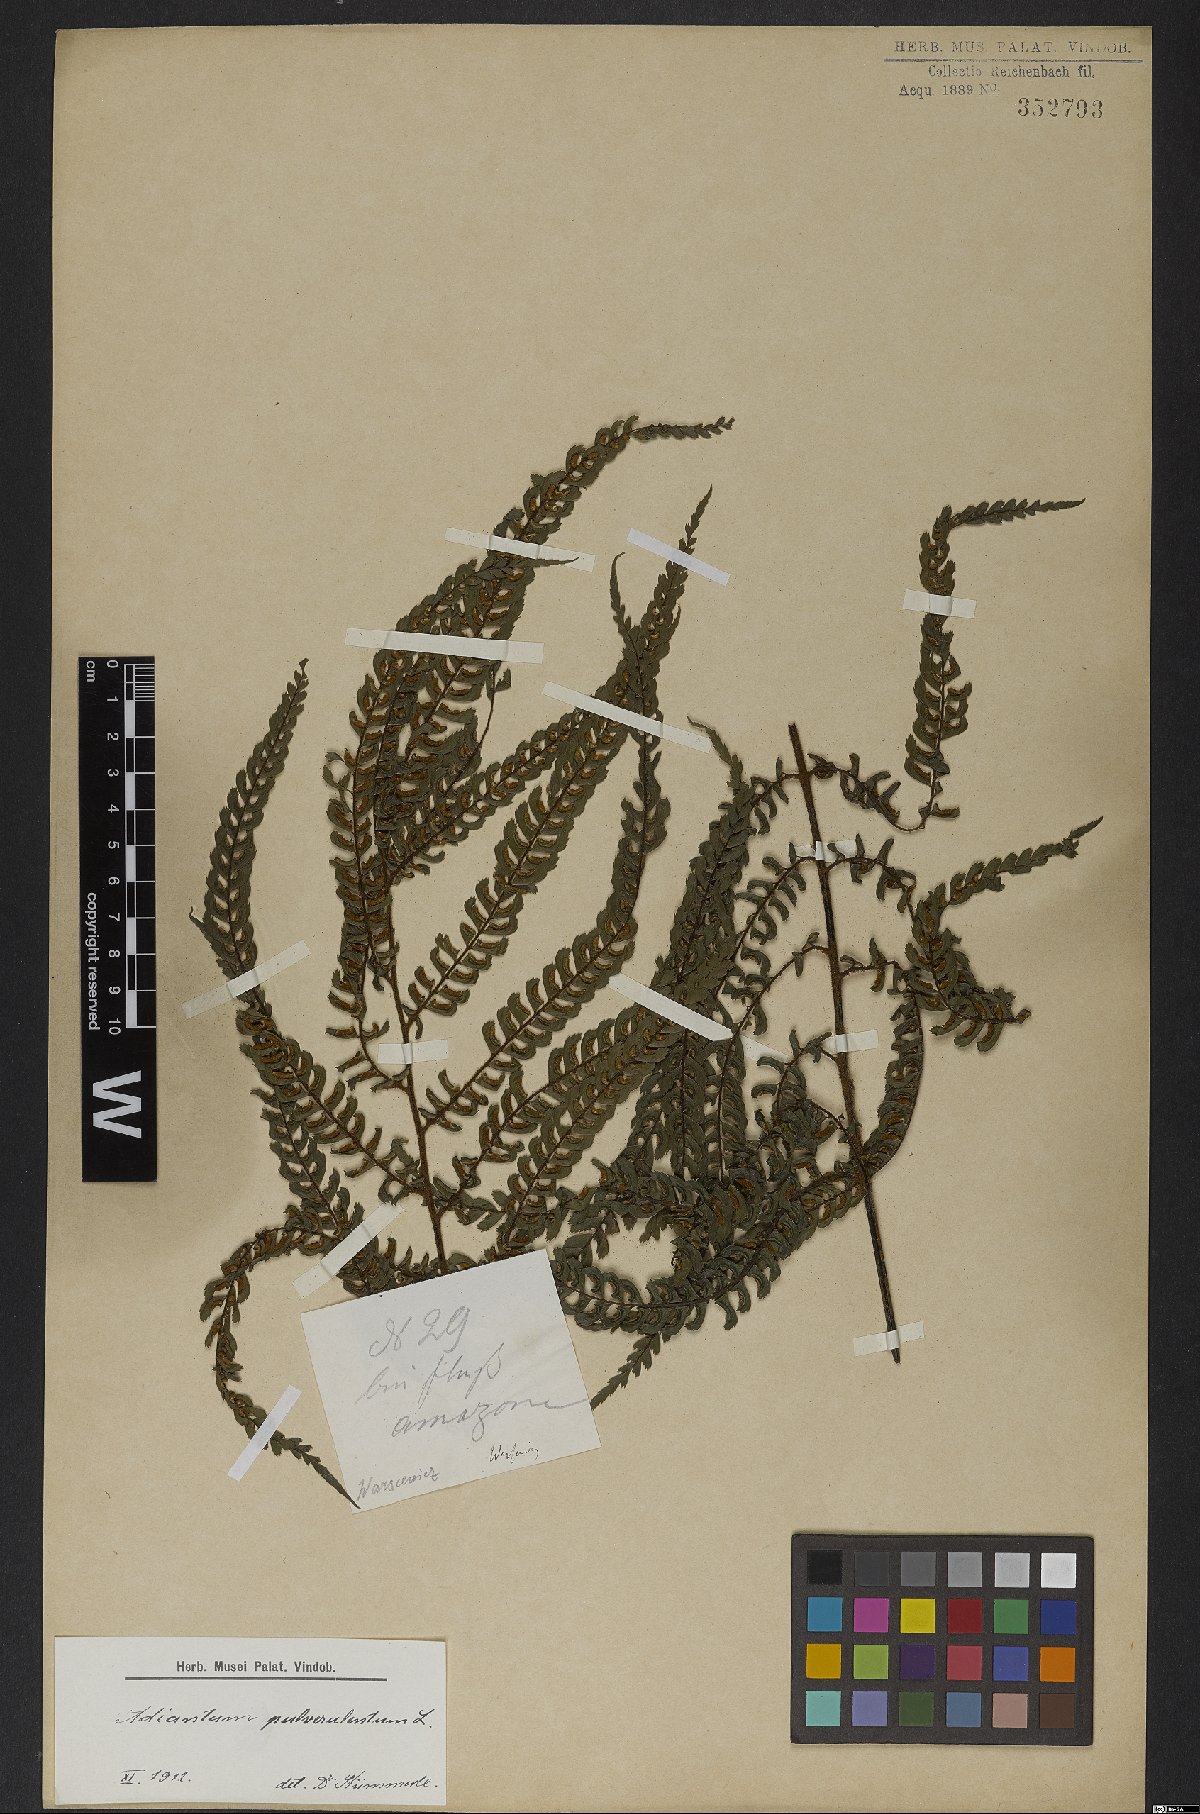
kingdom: Plantae
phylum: Tracheophyta
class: Polypodiopsida
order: Polypodiales
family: Pteridaceae
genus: Adiantum
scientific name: Adiantum pulverulentum
